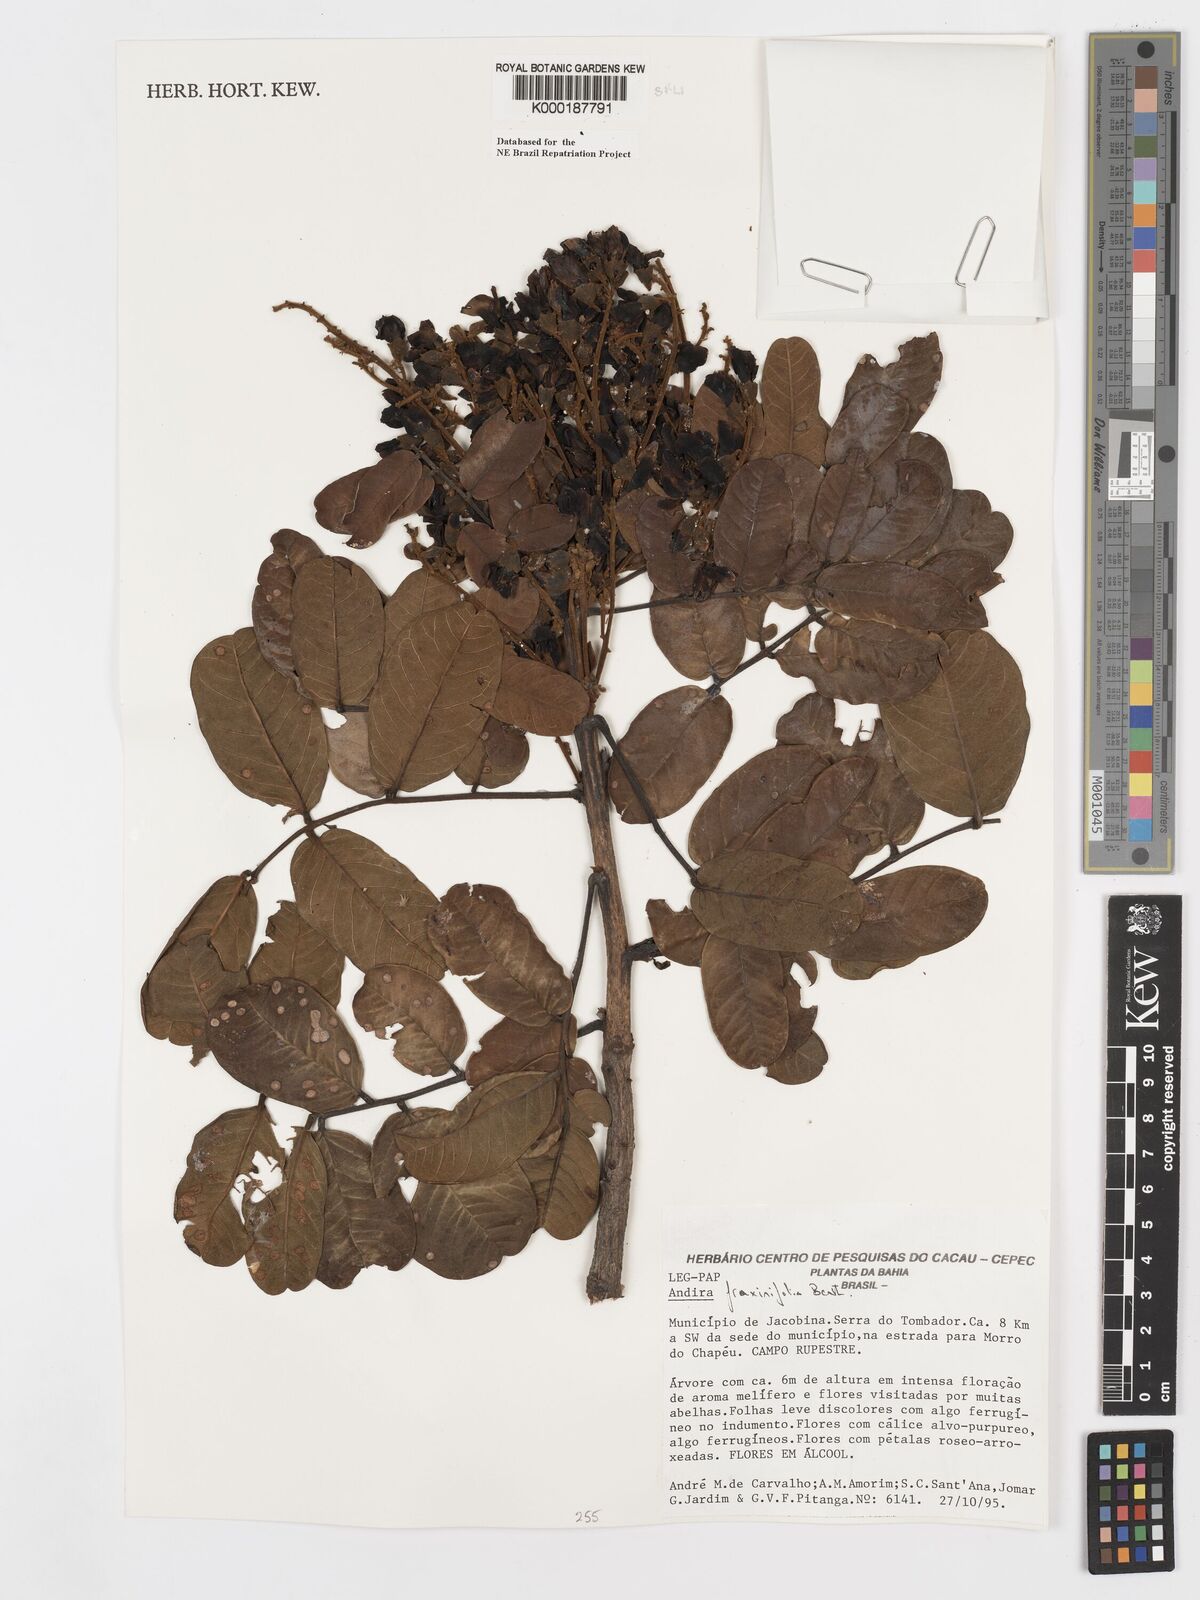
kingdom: Plantae
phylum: Tracheophyta
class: Magnoliopsida
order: Fabales
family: Fabaceae
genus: Andira
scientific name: Andira fraxinifolia
